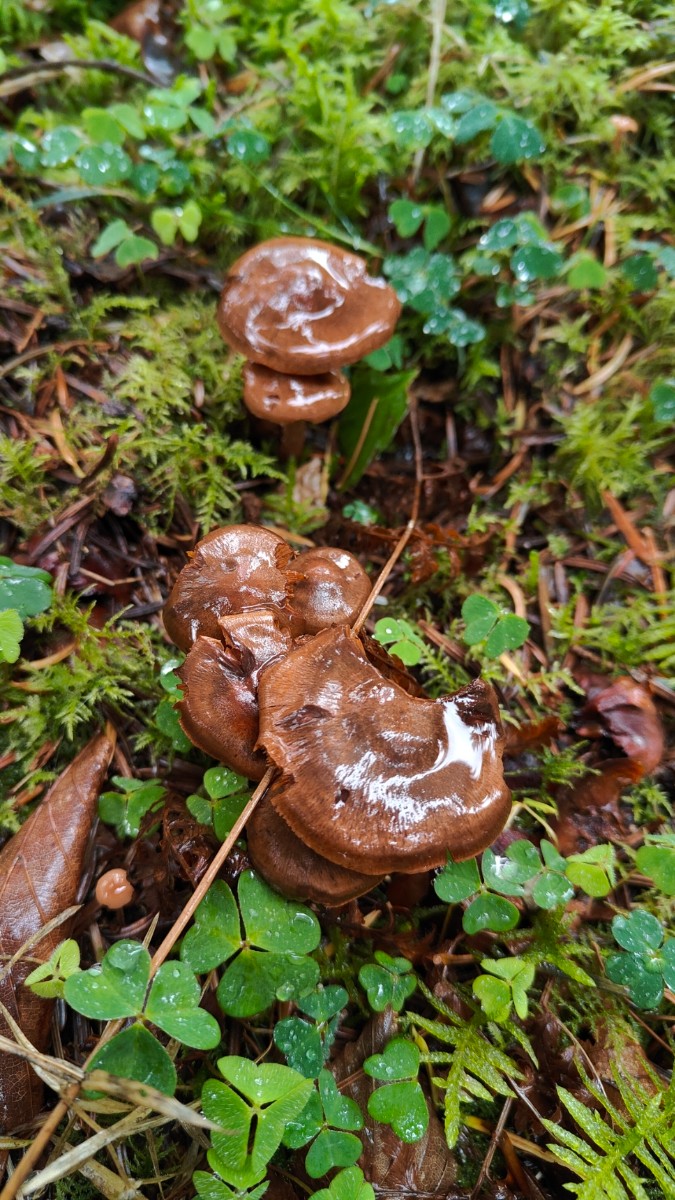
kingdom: Fungi
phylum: Basidiomycota
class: Agaricomycetes
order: Agaricales
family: Cortinariaceae
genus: Cortinarius
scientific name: Cortinarius
